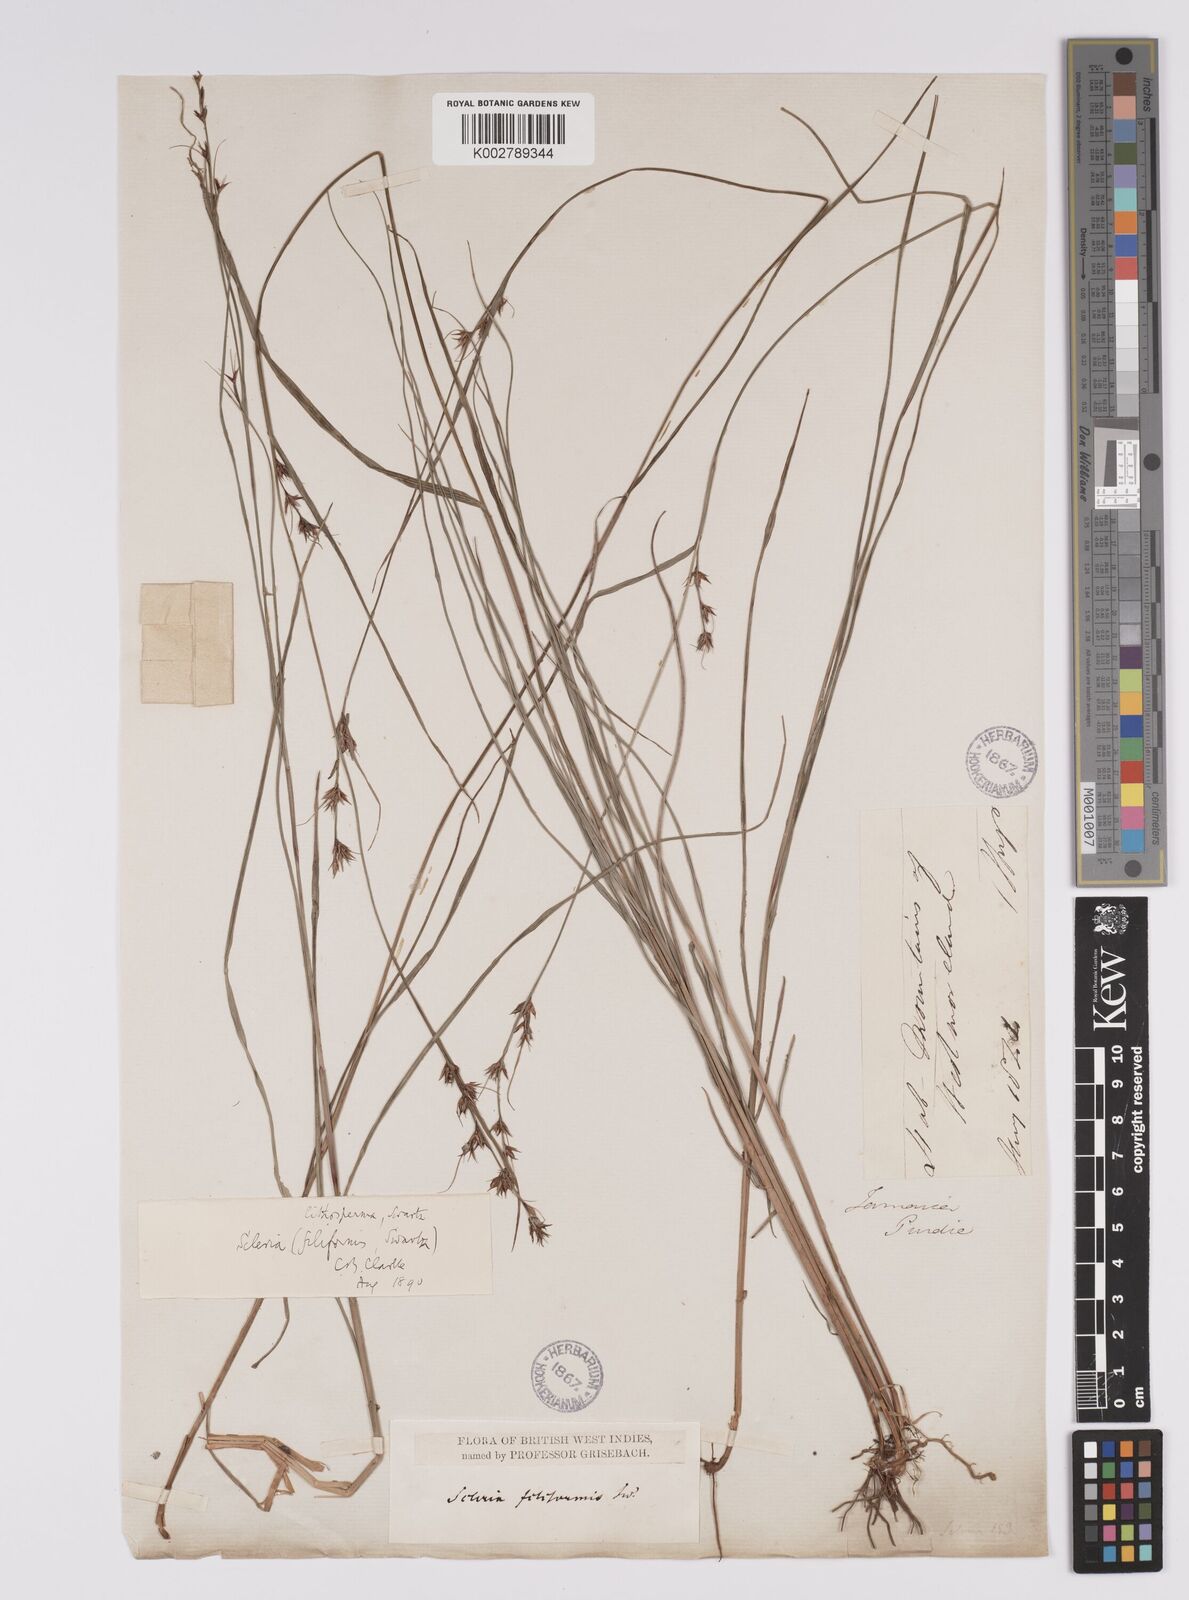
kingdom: Plantae
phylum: Tracheophyta
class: Liliopsida
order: Poales
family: Cyperaceae
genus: Scleria
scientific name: Scleria lithosperma
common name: Florida keys nut-rush
